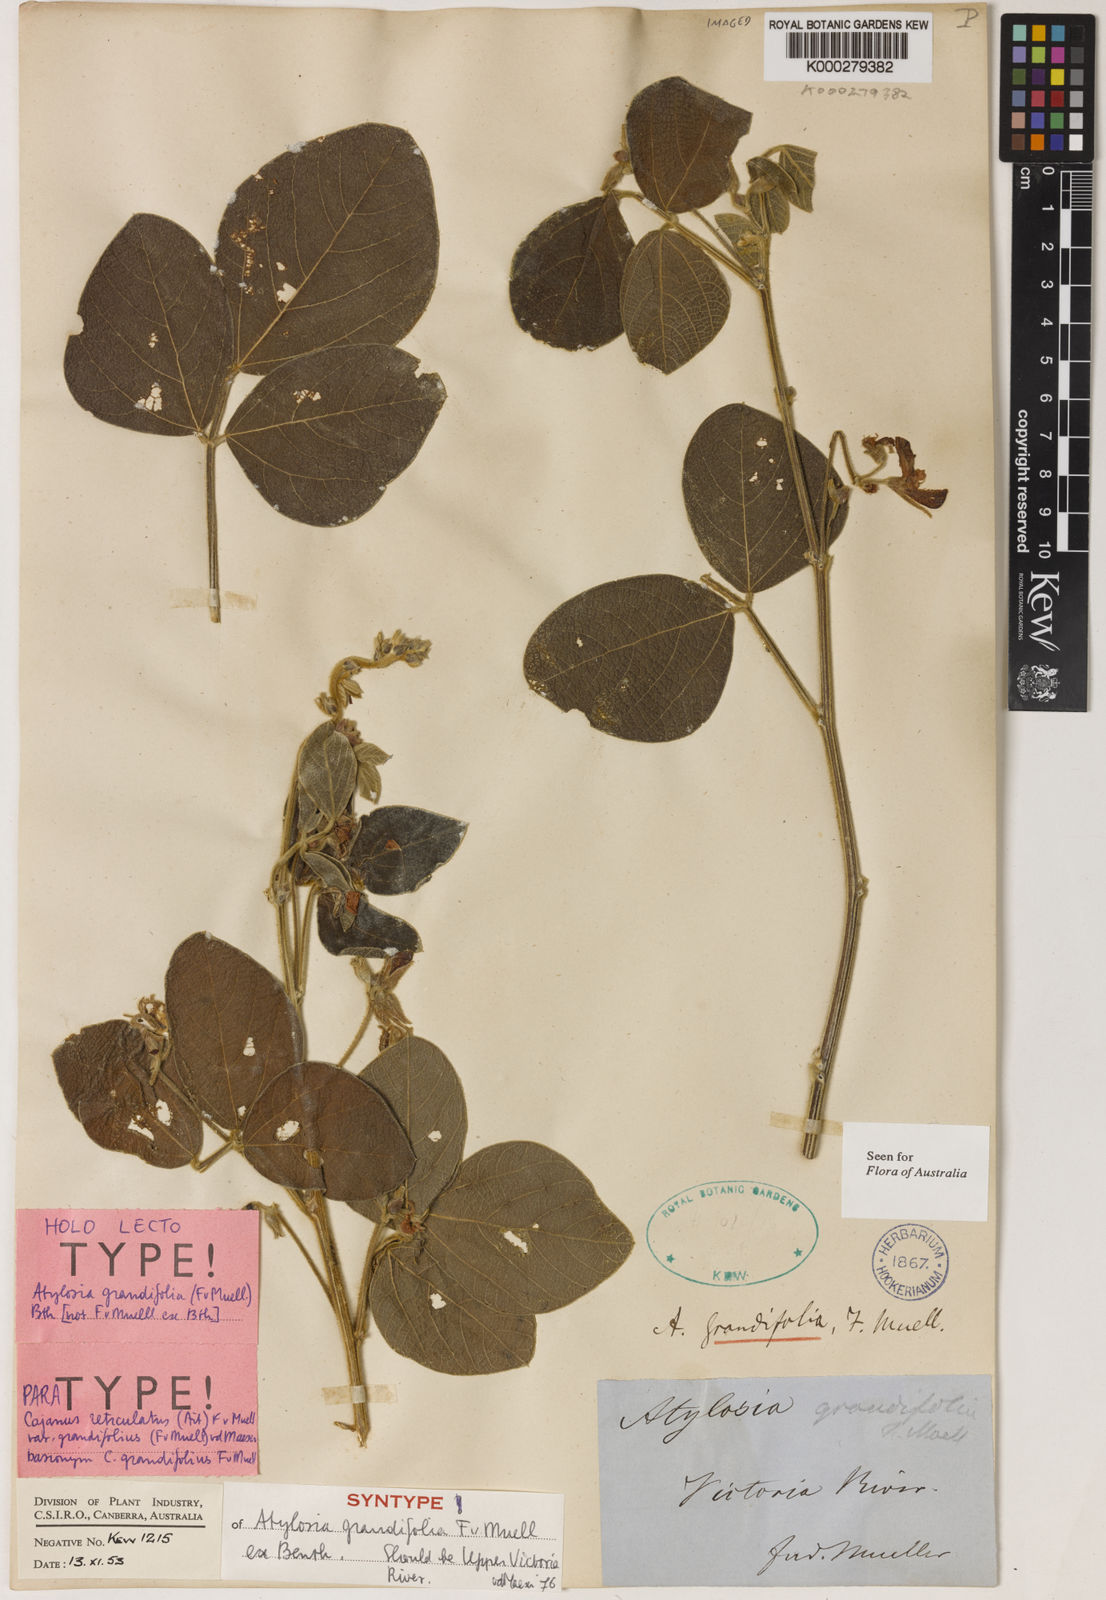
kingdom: Plantae
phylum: Tracheophyta
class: Magnoliopsida
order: Fabales
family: Fabaceae
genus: Cajanus
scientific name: Cajanus reticulatus
